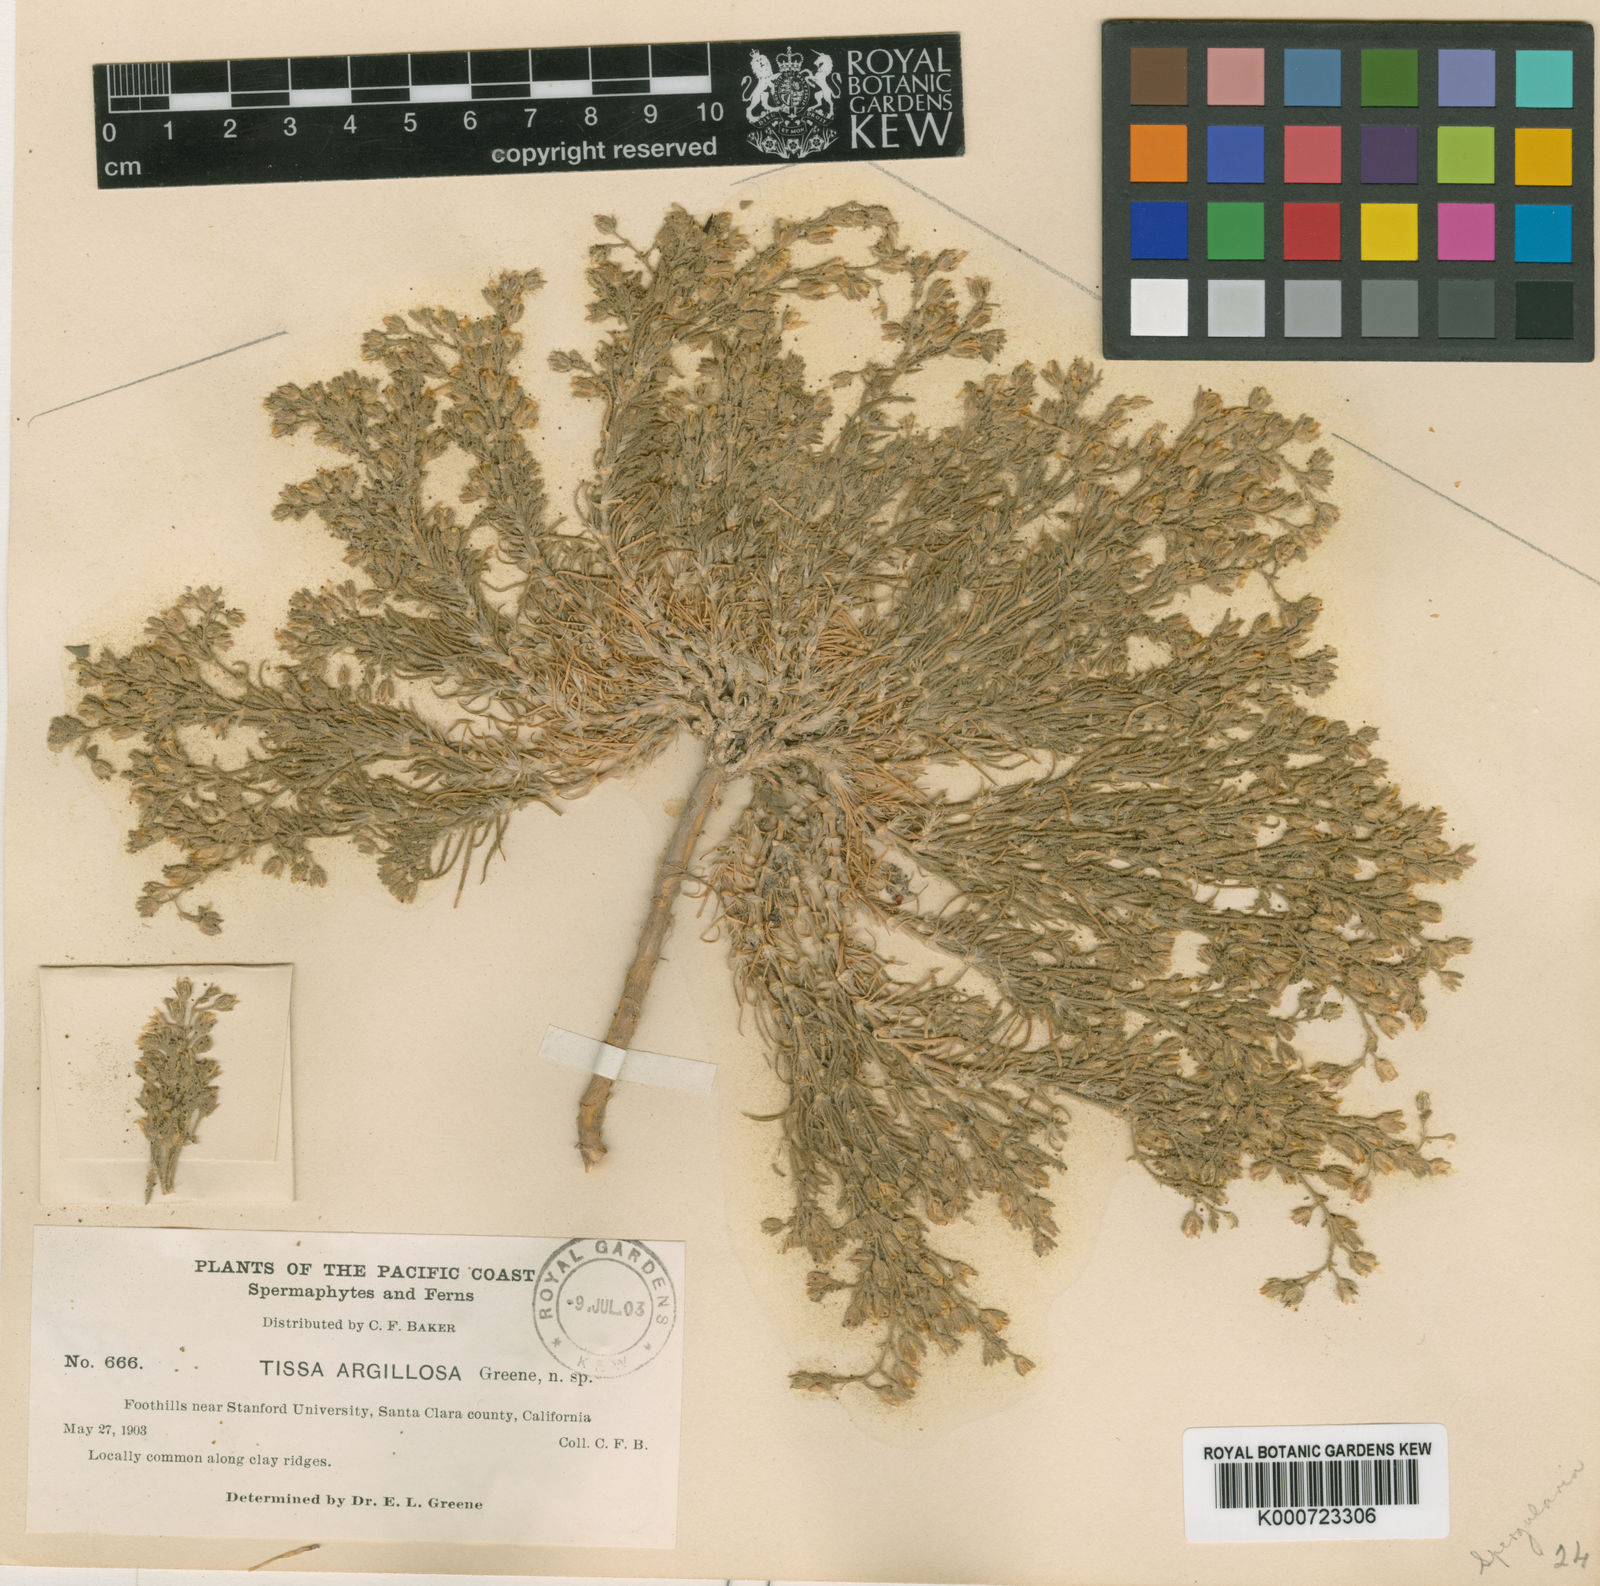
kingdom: Plantae
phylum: Tracheophyta
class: Magnoliopsida
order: Caryophyllales
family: Caryophyllaceae
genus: Spergularia
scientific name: Spergularia
